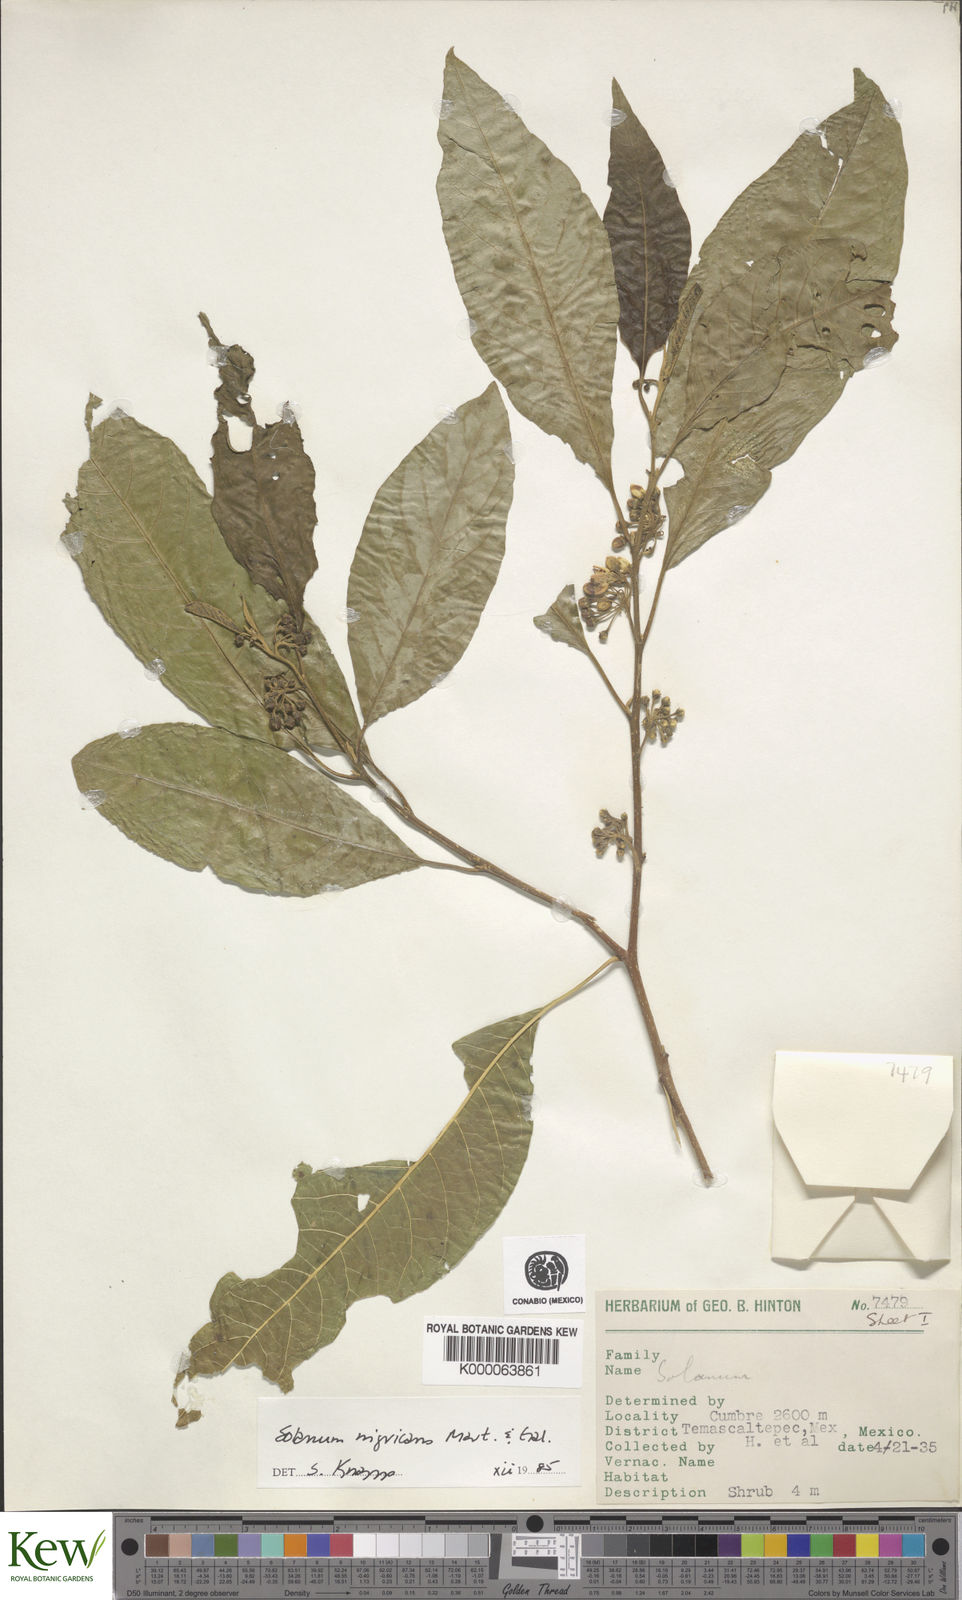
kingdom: Plantae
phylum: Tracheophyta
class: Magnoliopsida
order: Solanales
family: Solanaceae
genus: Solanum
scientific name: Solanum nigricans
